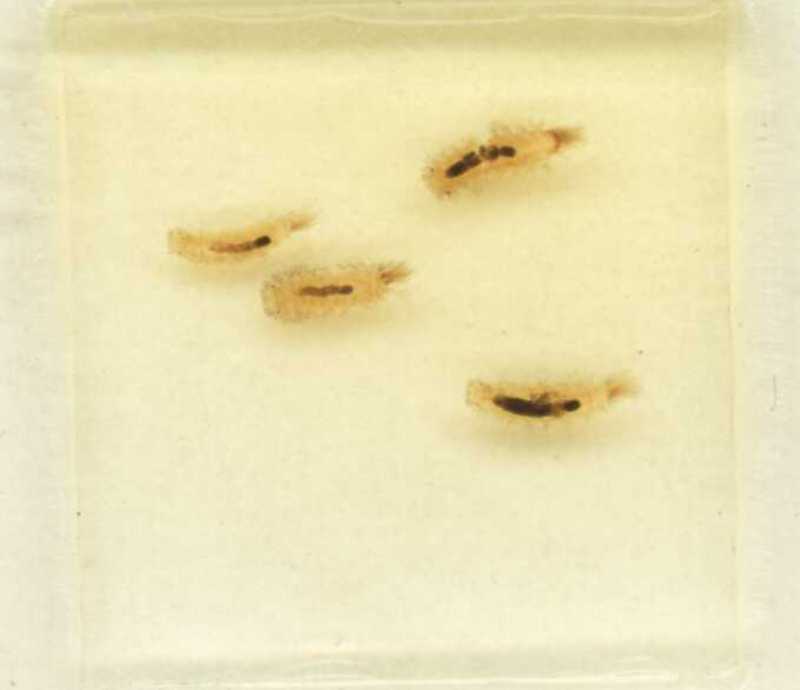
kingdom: Animalia
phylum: Arthropoda
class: Diplopoda
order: Polyxenida
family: Polyxenidae
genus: Polyxenus
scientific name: Polyxenus lagurus
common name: Bristly millipede
